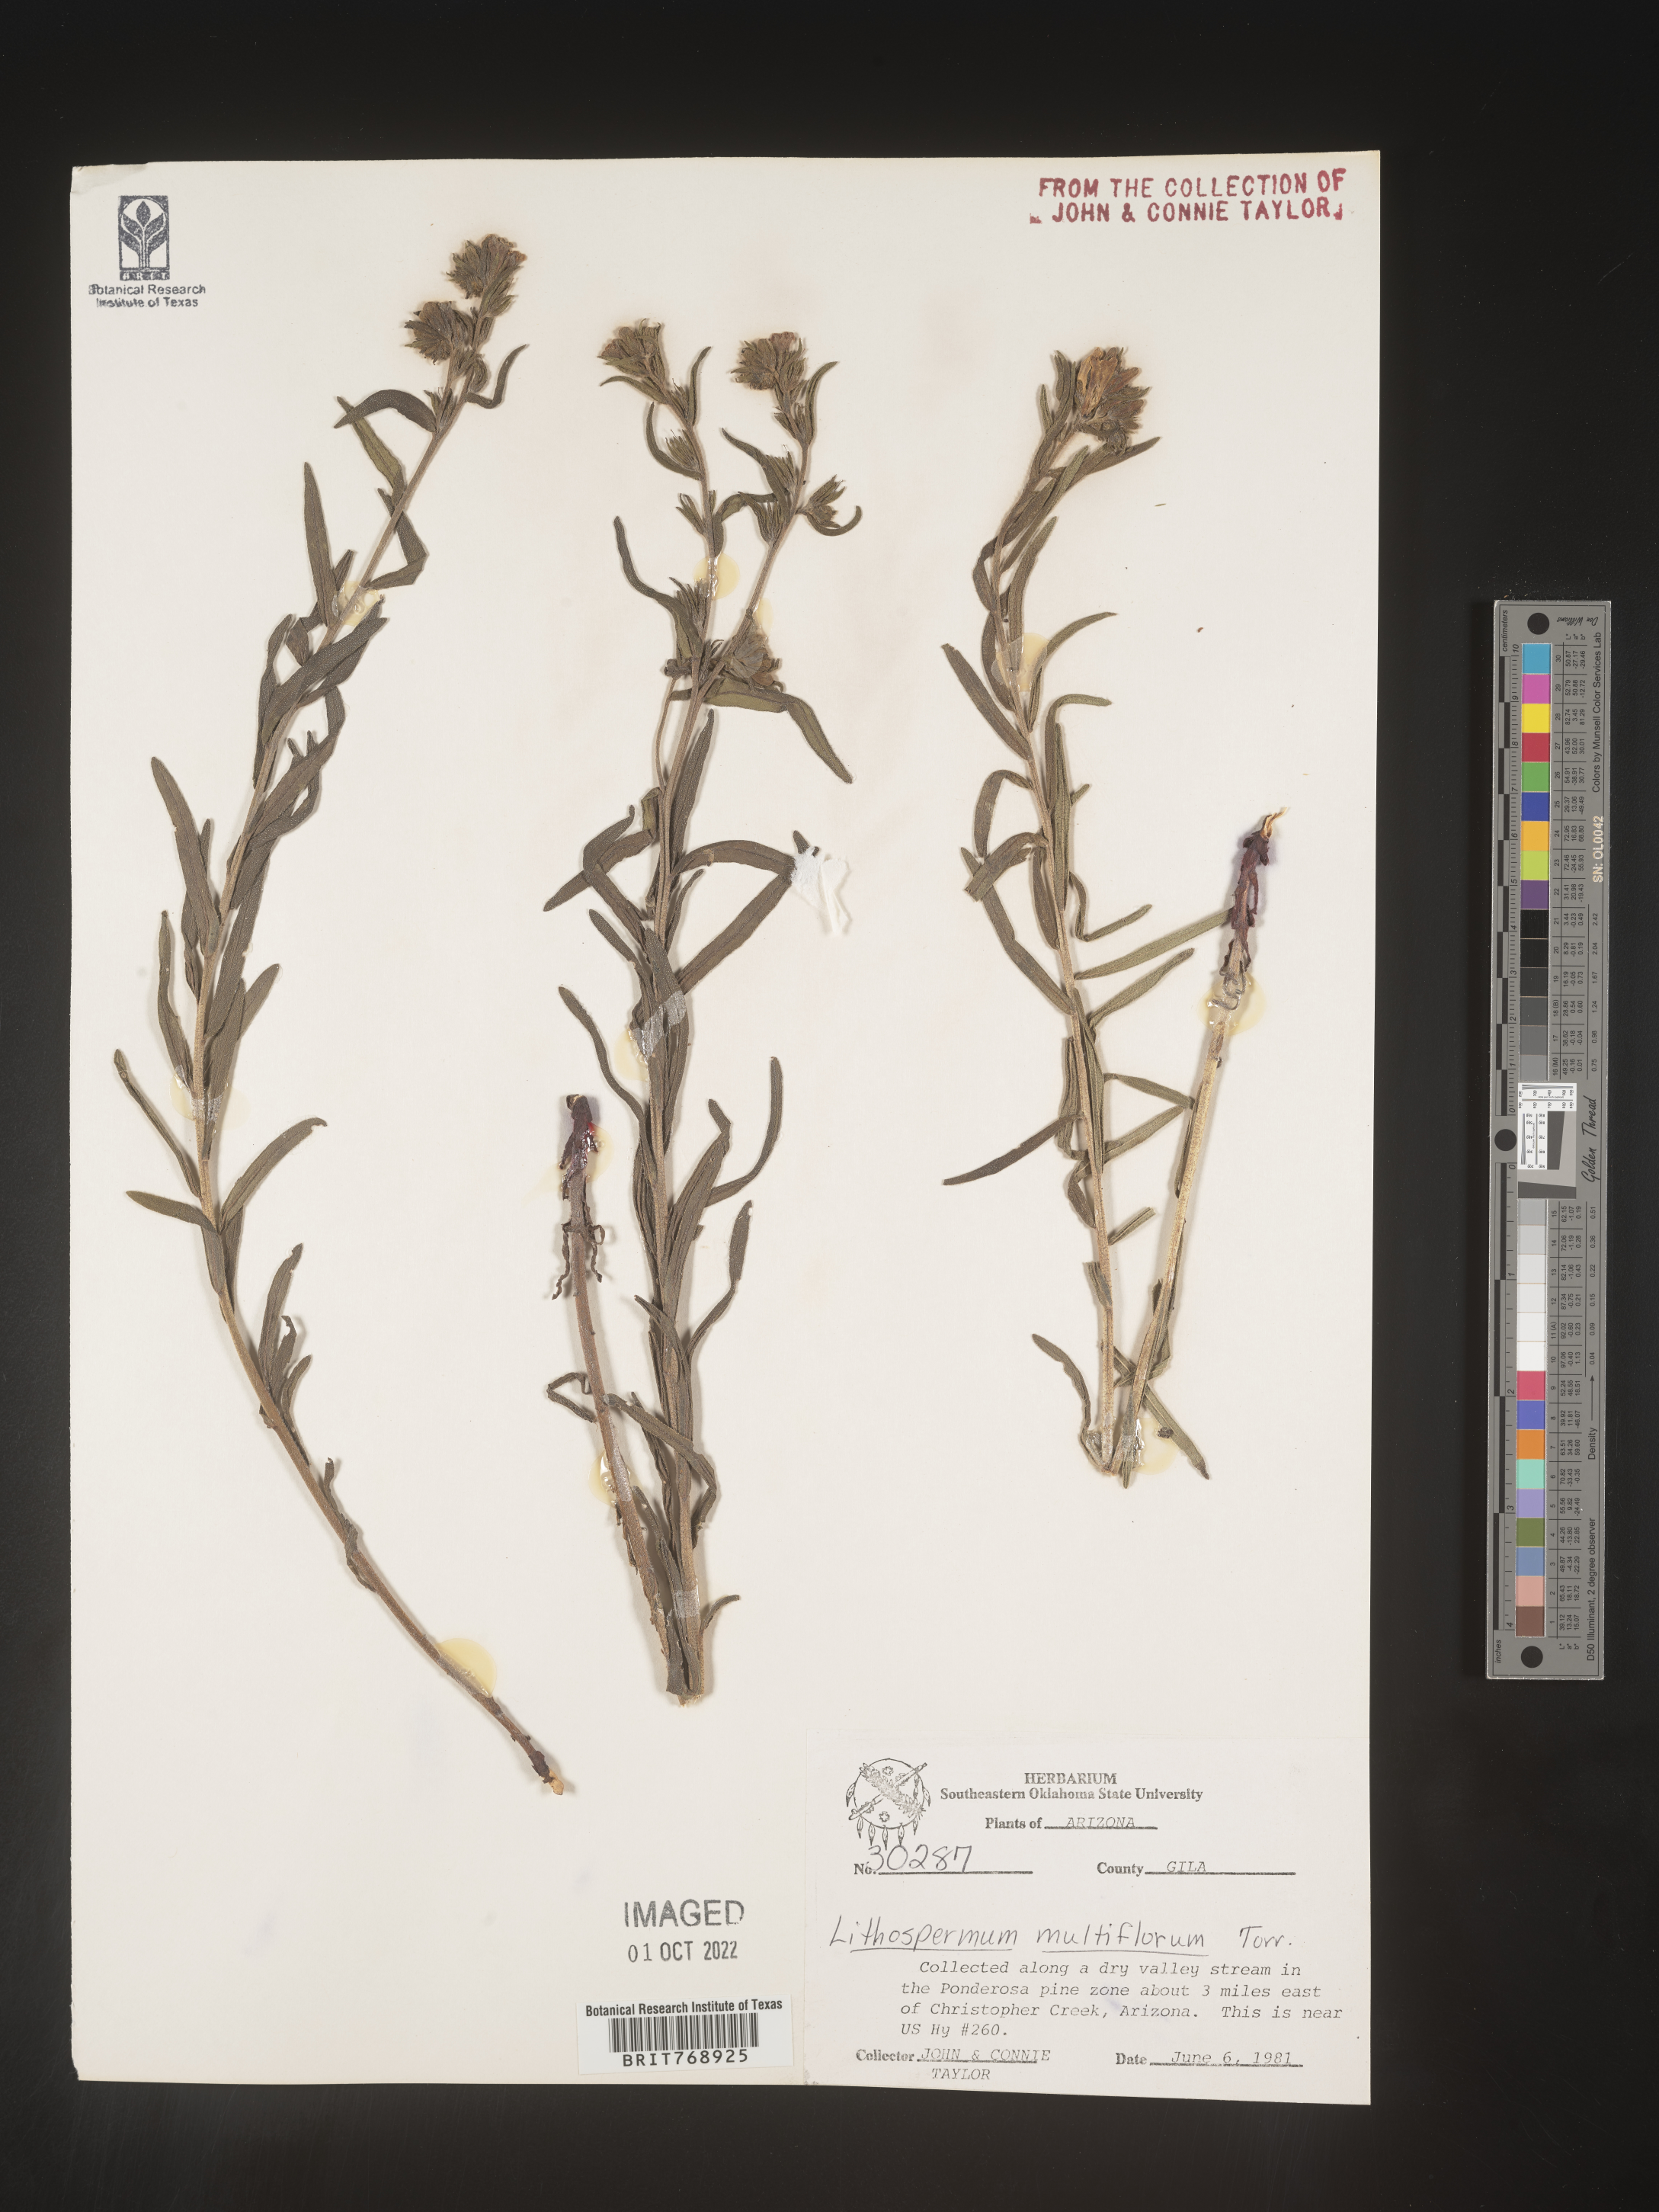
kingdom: Plantae
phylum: Tracheophyta
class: Magnoliopsida
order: Boraginales
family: Boraginaceae
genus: Lithospermum
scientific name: Lithospermum multiflorum
